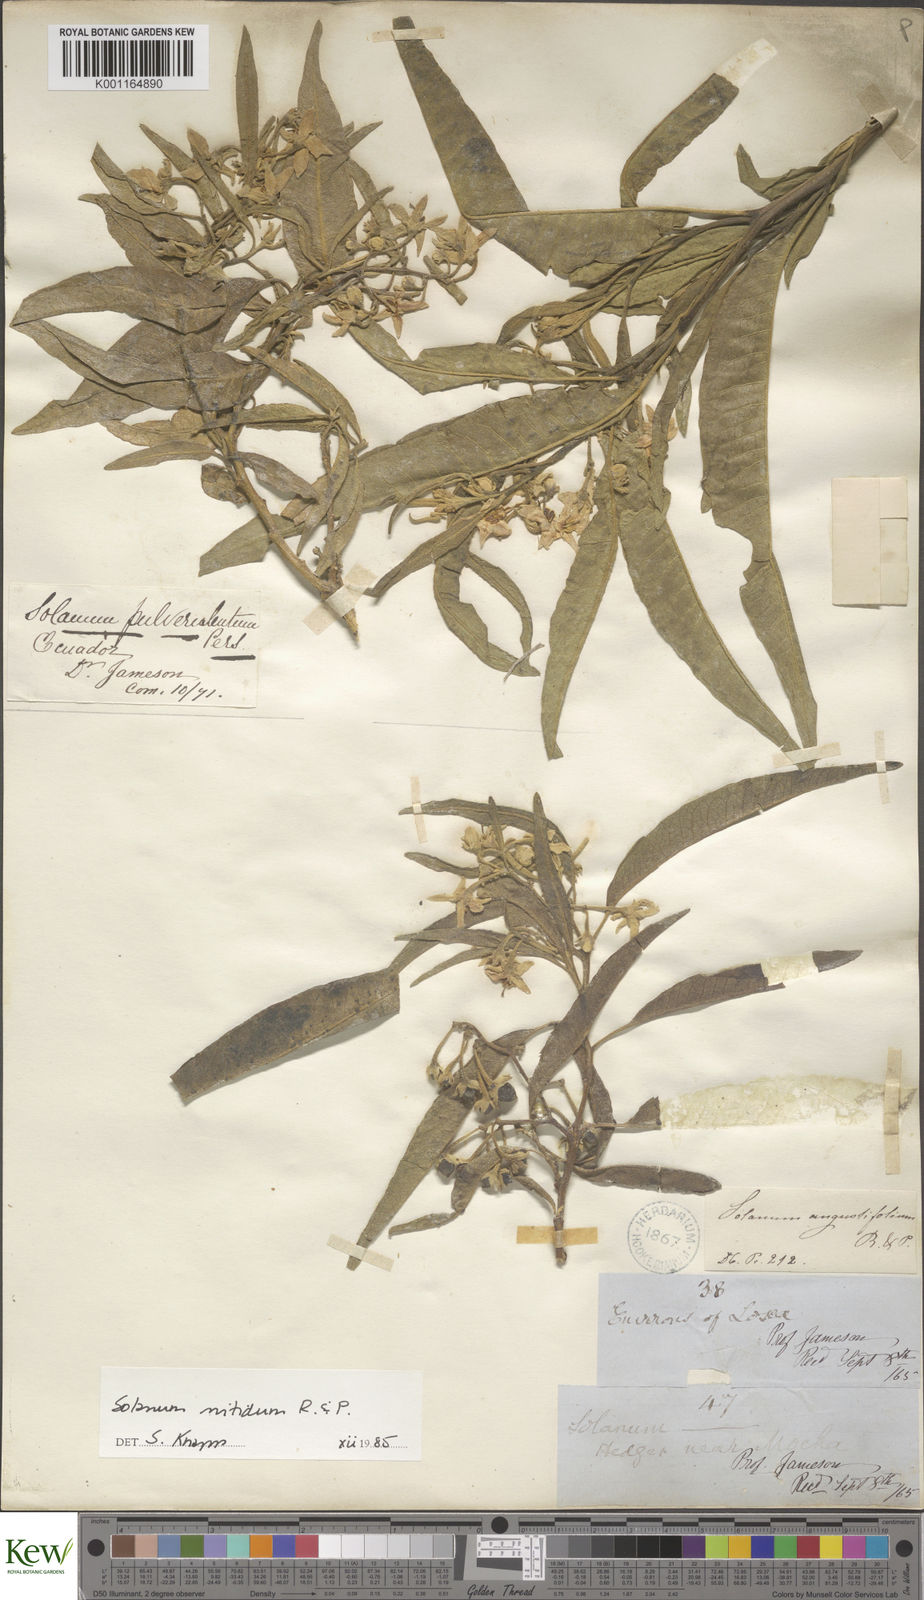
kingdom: Plantae
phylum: Tracheophyta
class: Magnoliopsida
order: Solanales
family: Solanaceae
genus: Solanum
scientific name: Solanum nitidum
